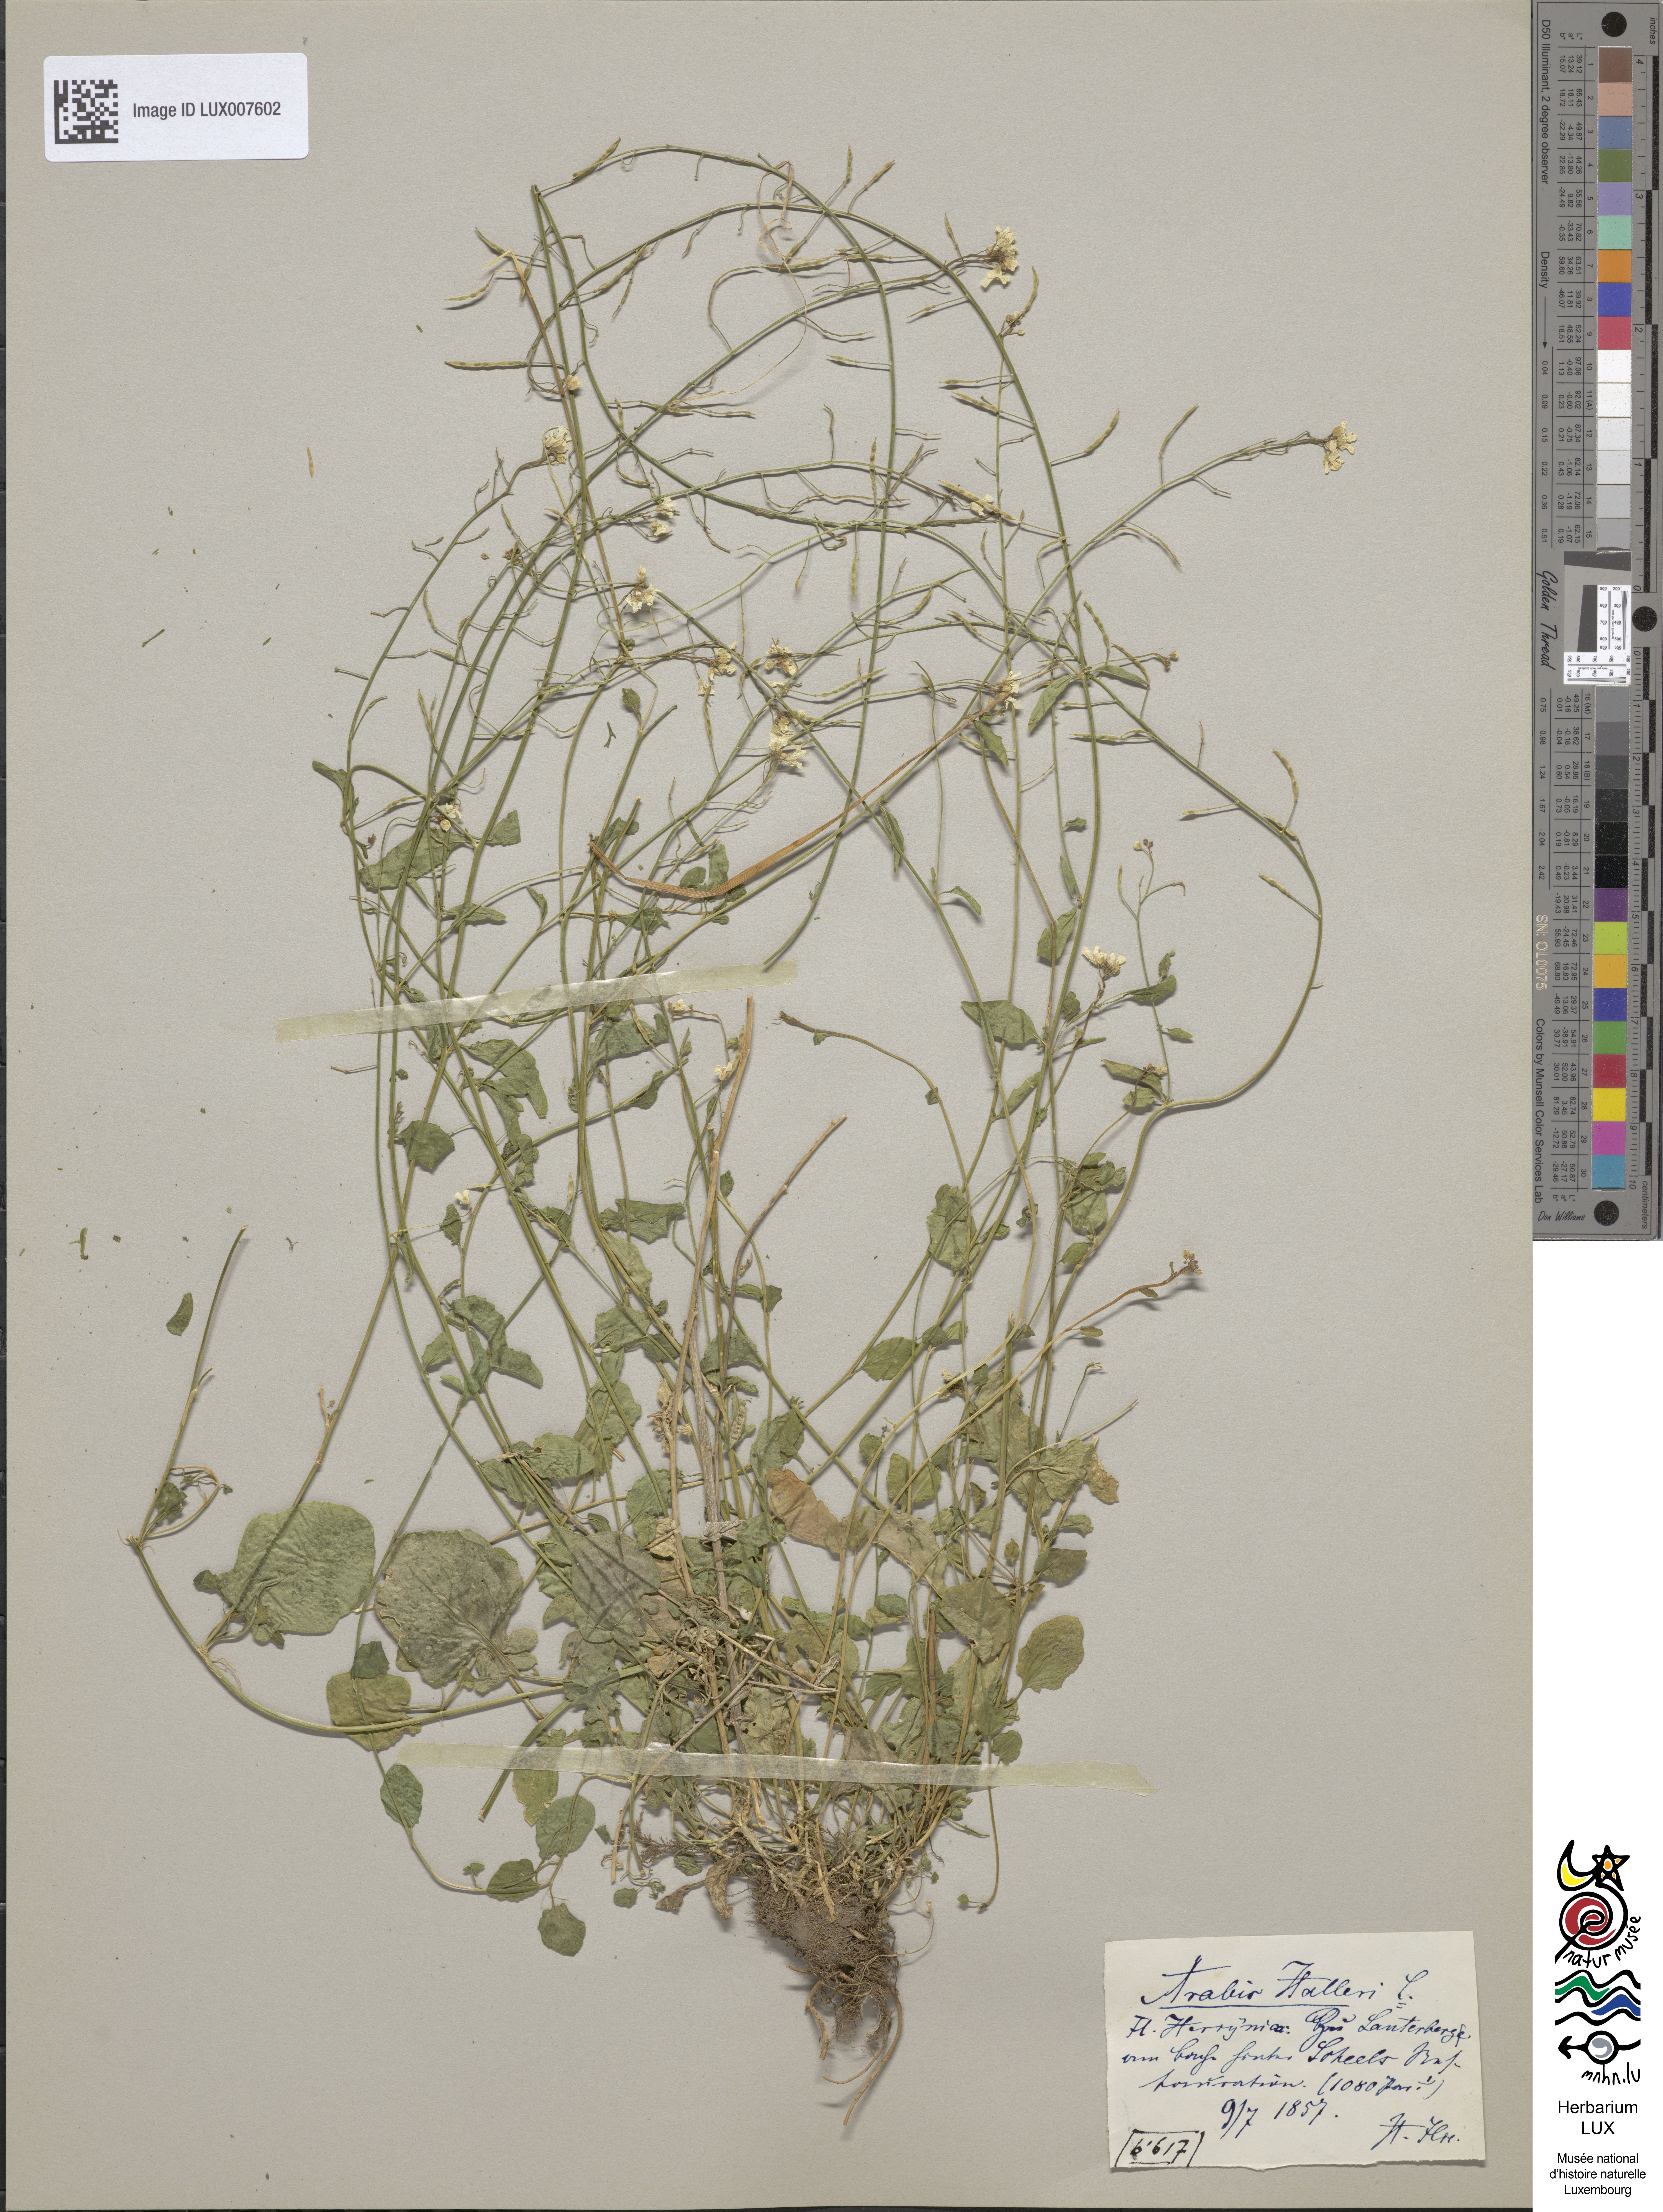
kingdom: Plantae
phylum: Tracheophyta
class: Magnoliopsida
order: Brassicales
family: Brassicaceae
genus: Arabidopsis
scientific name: Arabidopsis halleri
